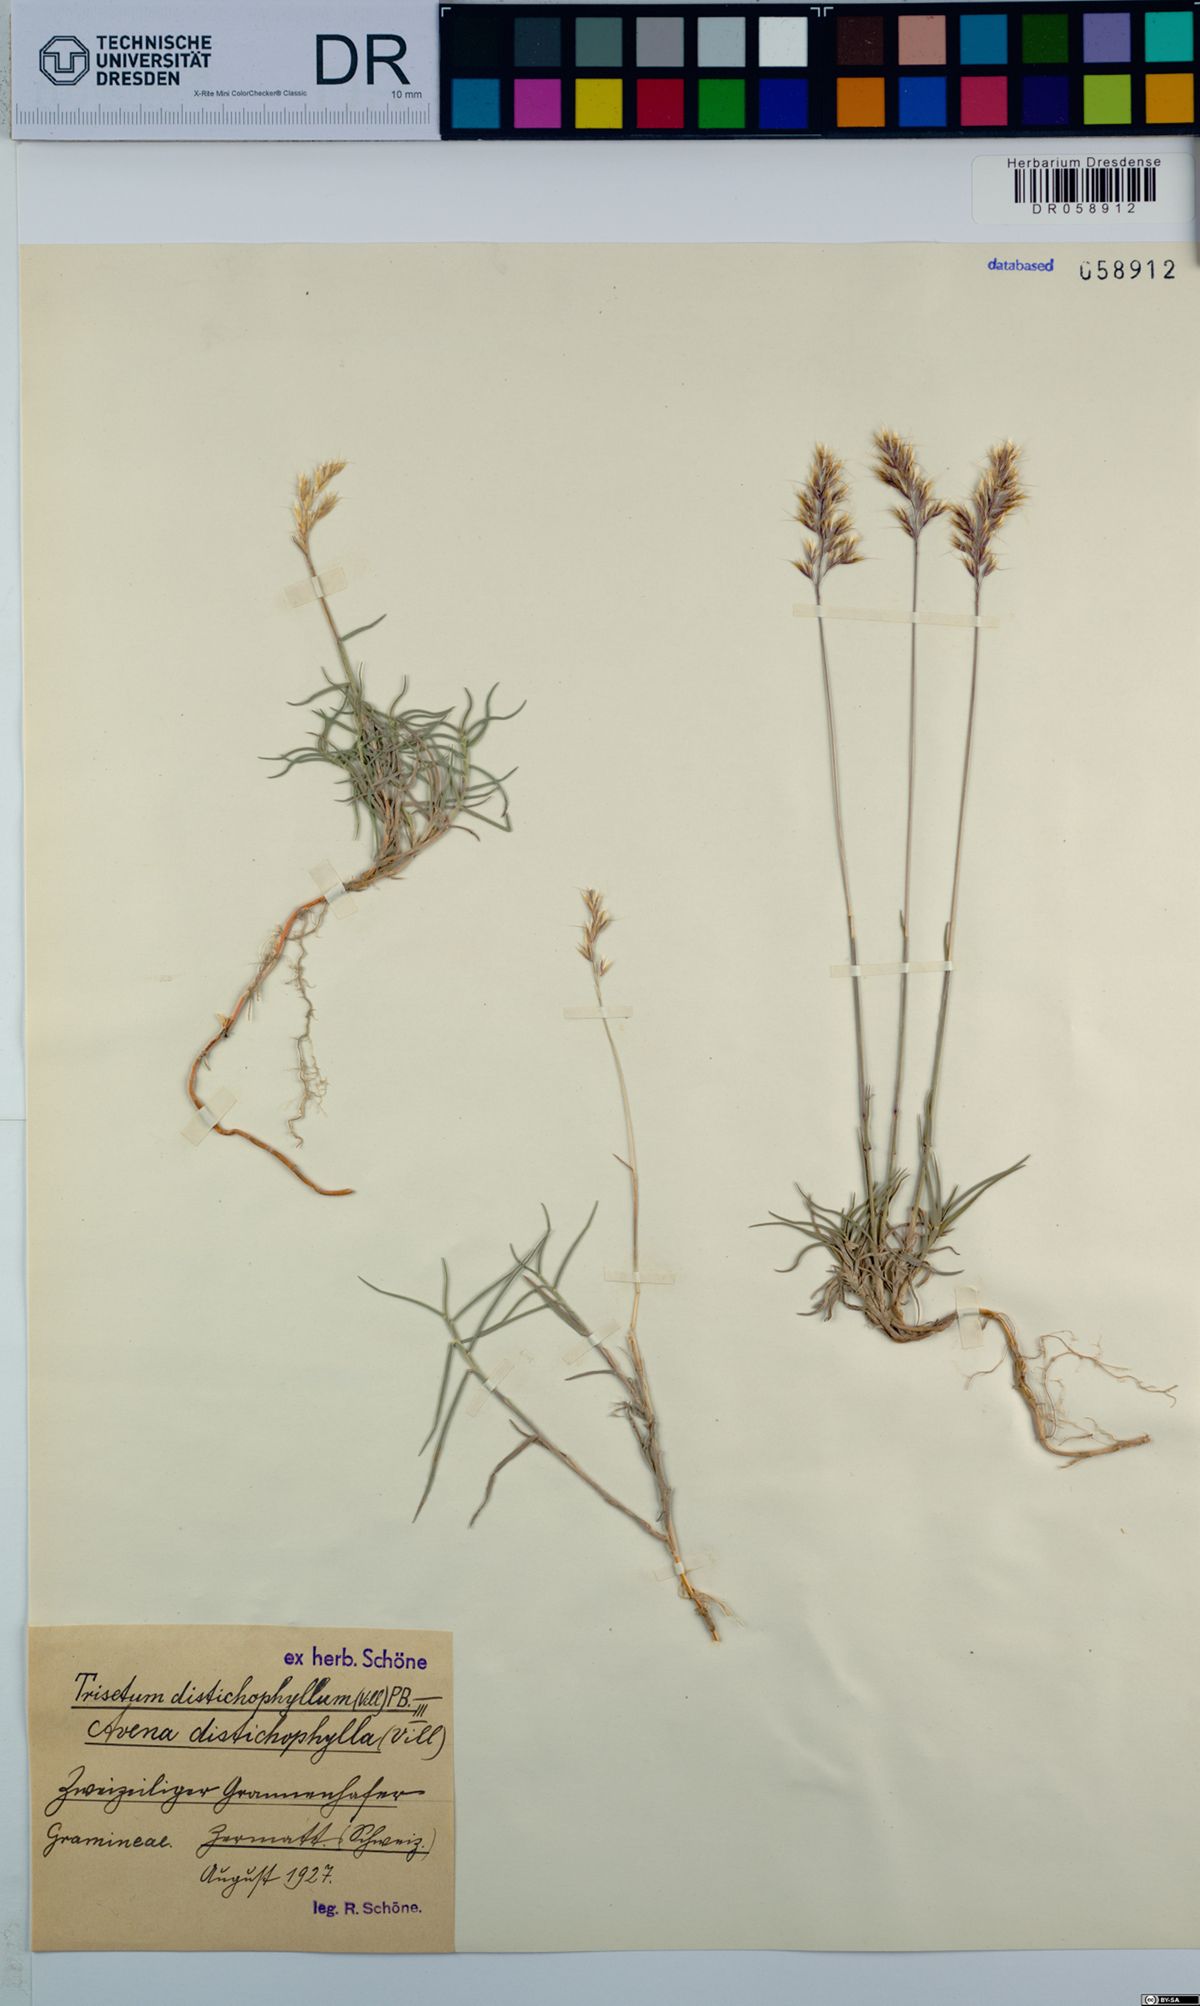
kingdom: Plantae
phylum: Tracheophyta
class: Liliopsida
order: Poales
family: Poaceae
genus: Acrospelion
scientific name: Acrospelion distichophyllum
